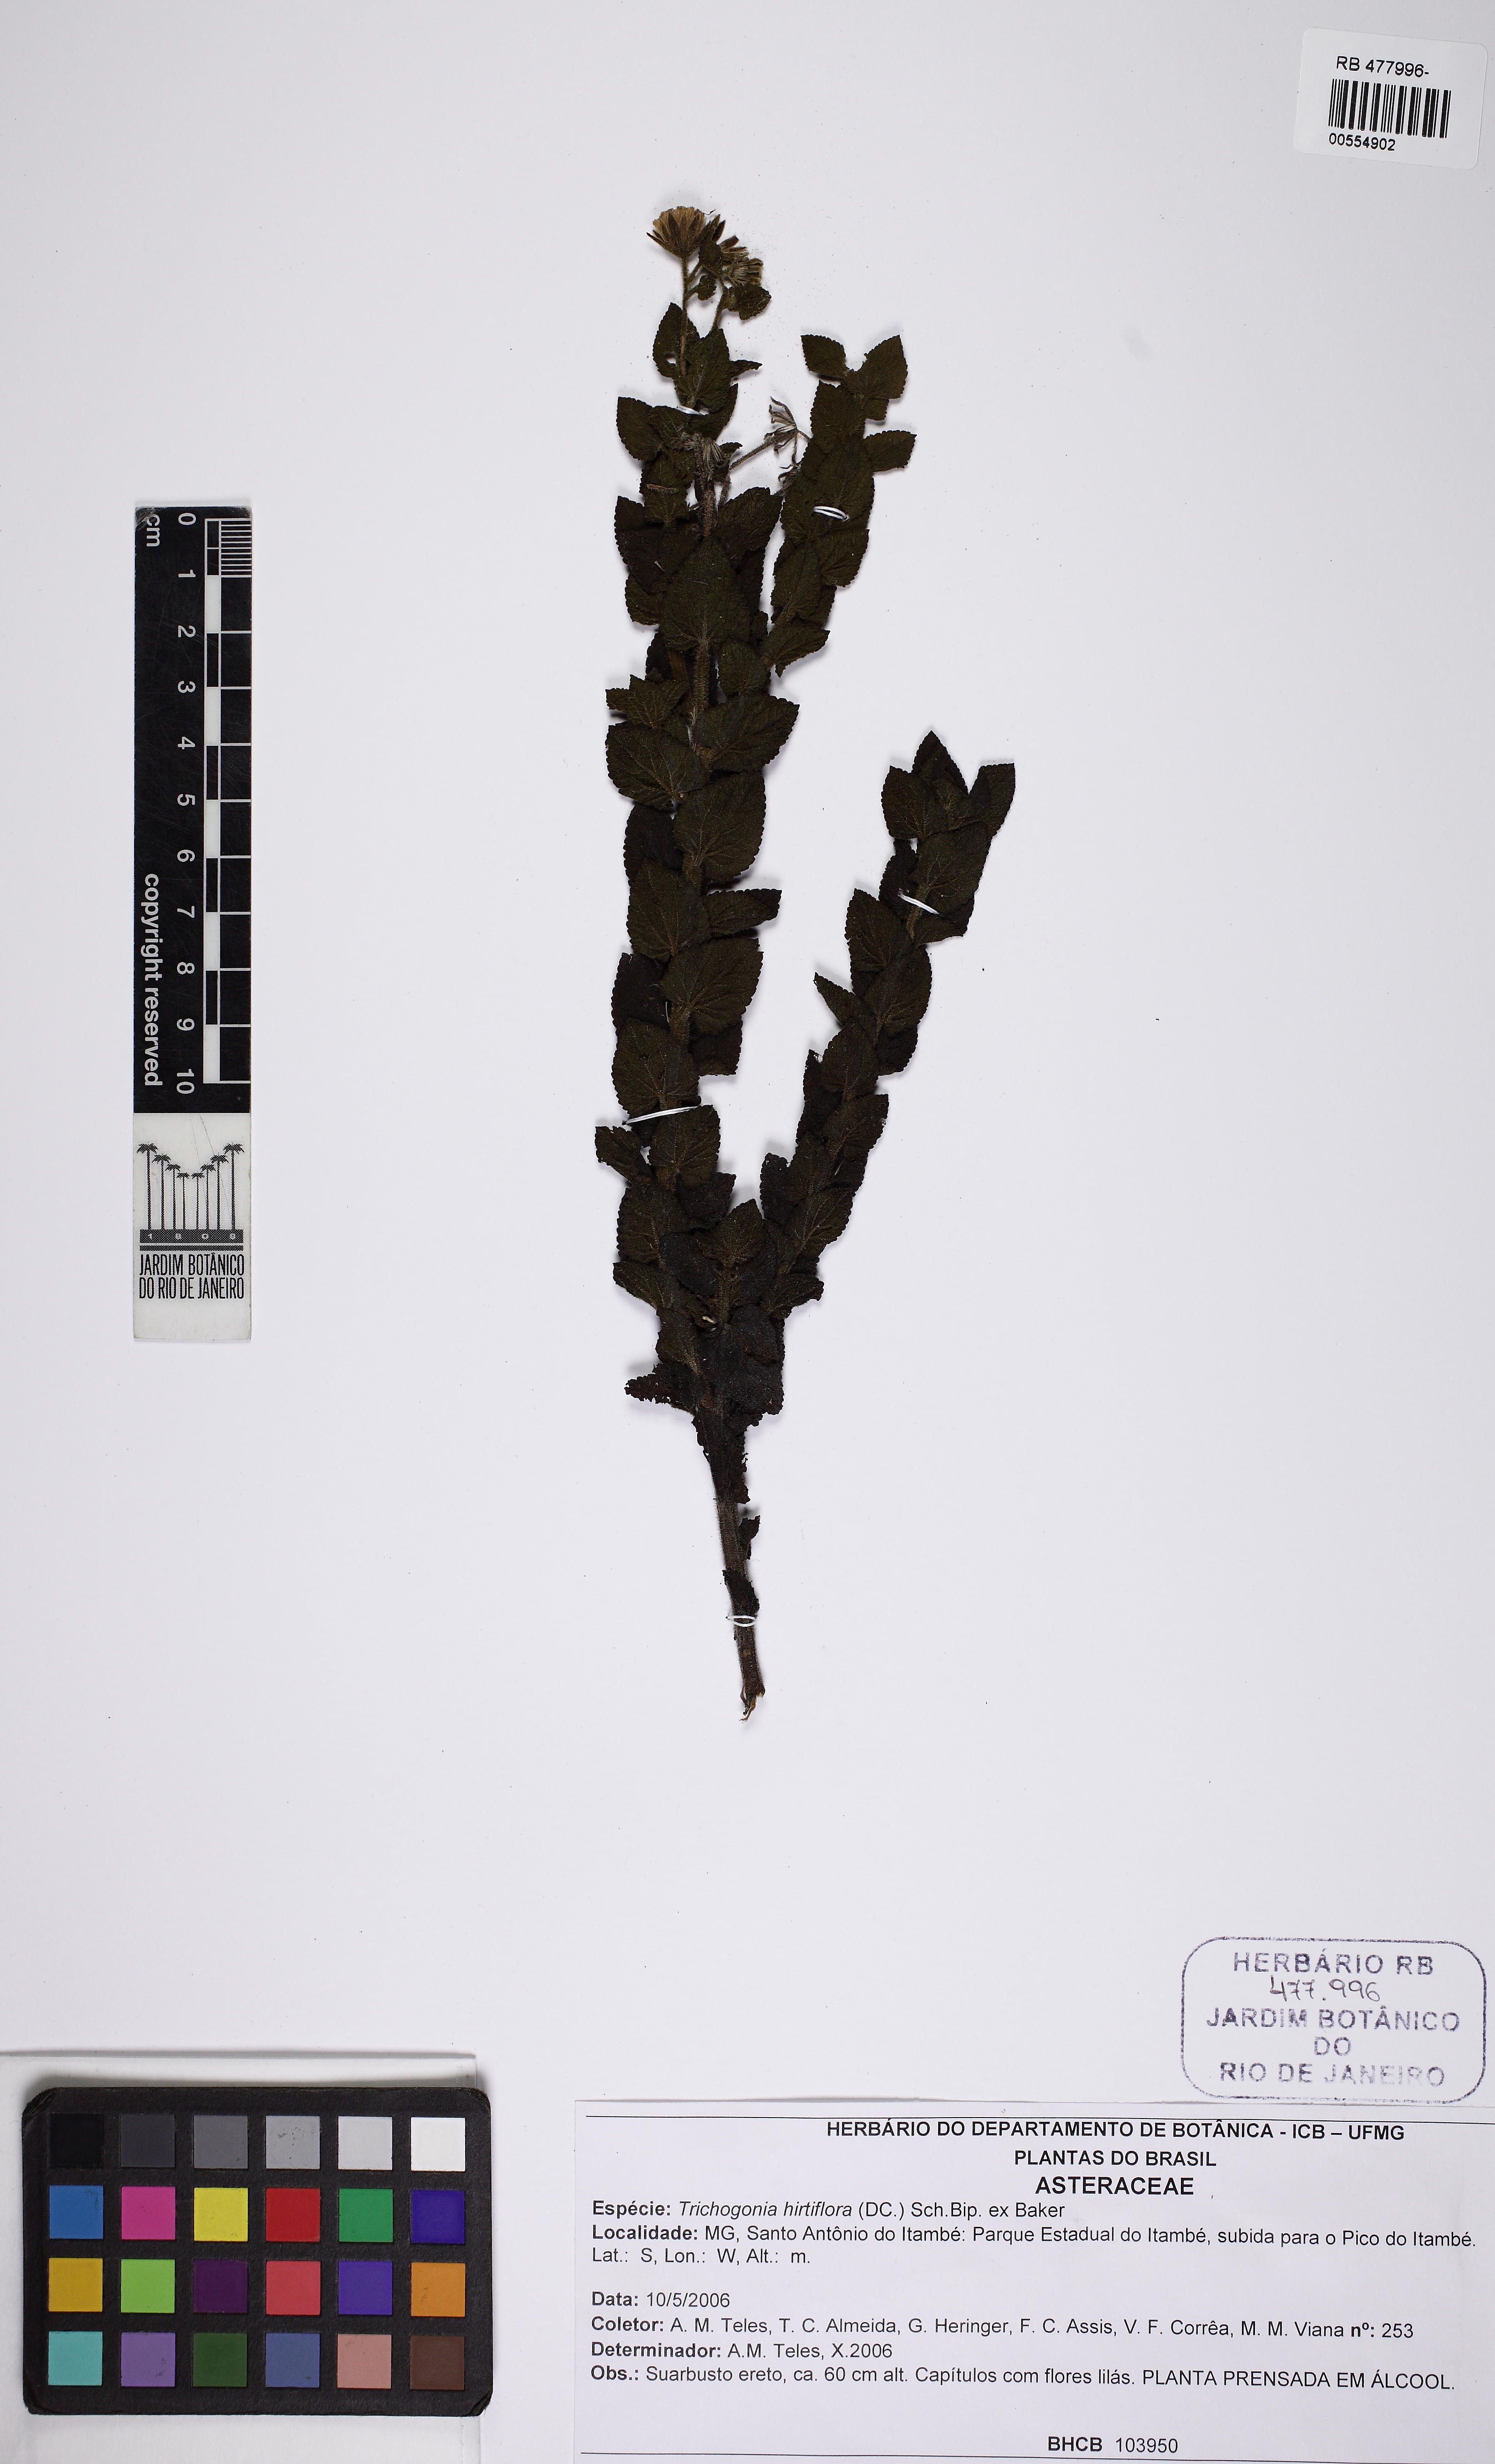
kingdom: Plantae
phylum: Tracheophyta
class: Magnoliopsida
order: Asterales
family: Asteraceae
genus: Trichogonia
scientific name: Trichogonia hirtiflora
